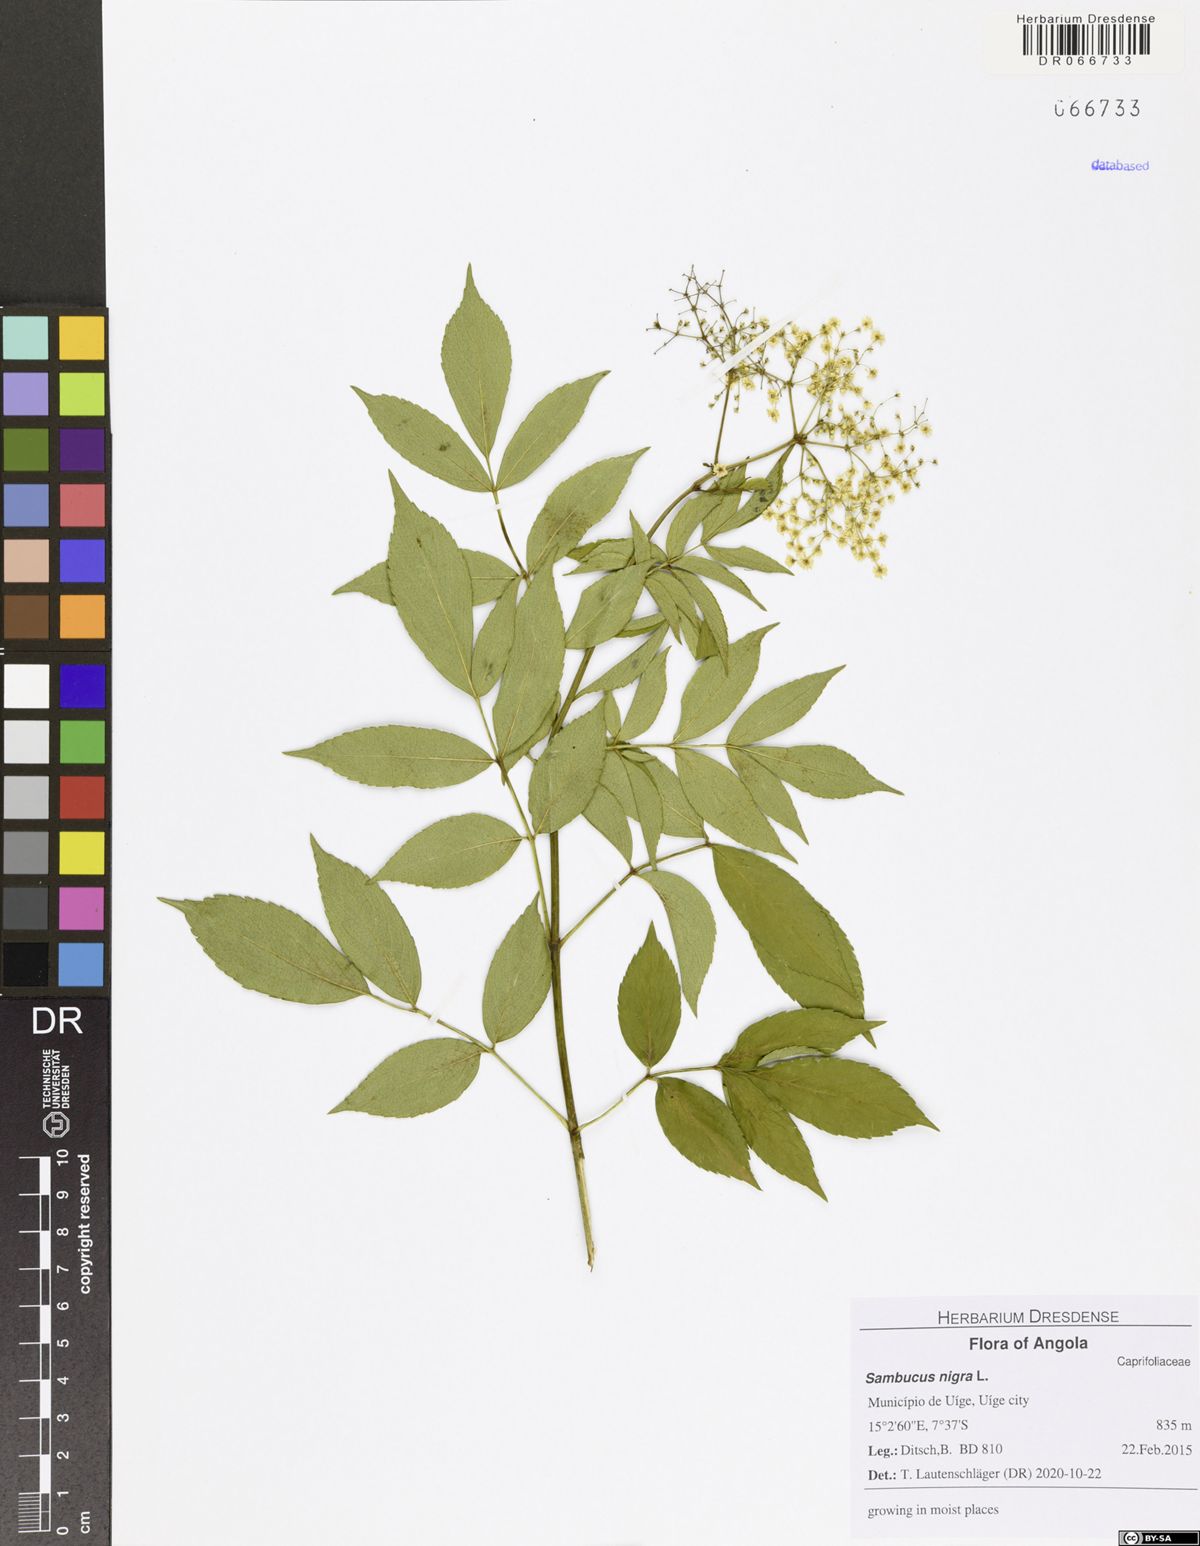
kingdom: Plantae
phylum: Tracheophyta
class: Magnoliopsida
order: Dipsacales
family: Viburnaceae
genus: Sambucus
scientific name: Sambucus nigra
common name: Elder
